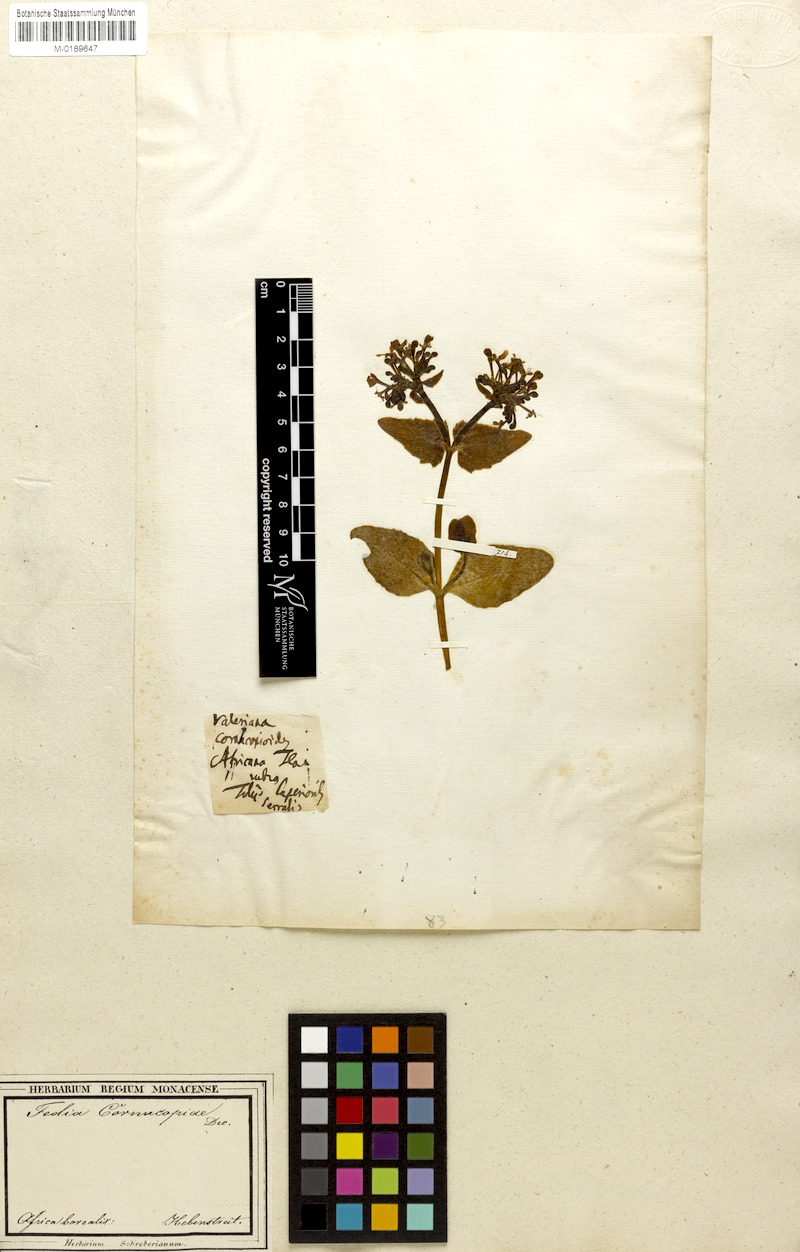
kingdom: Plantae
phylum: Tracheophyta
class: Magnoliopsida
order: Dipsacales
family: Caprifoliaceae
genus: Fedia
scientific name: Fedia cornucopiae
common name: Horn-of-plenty
